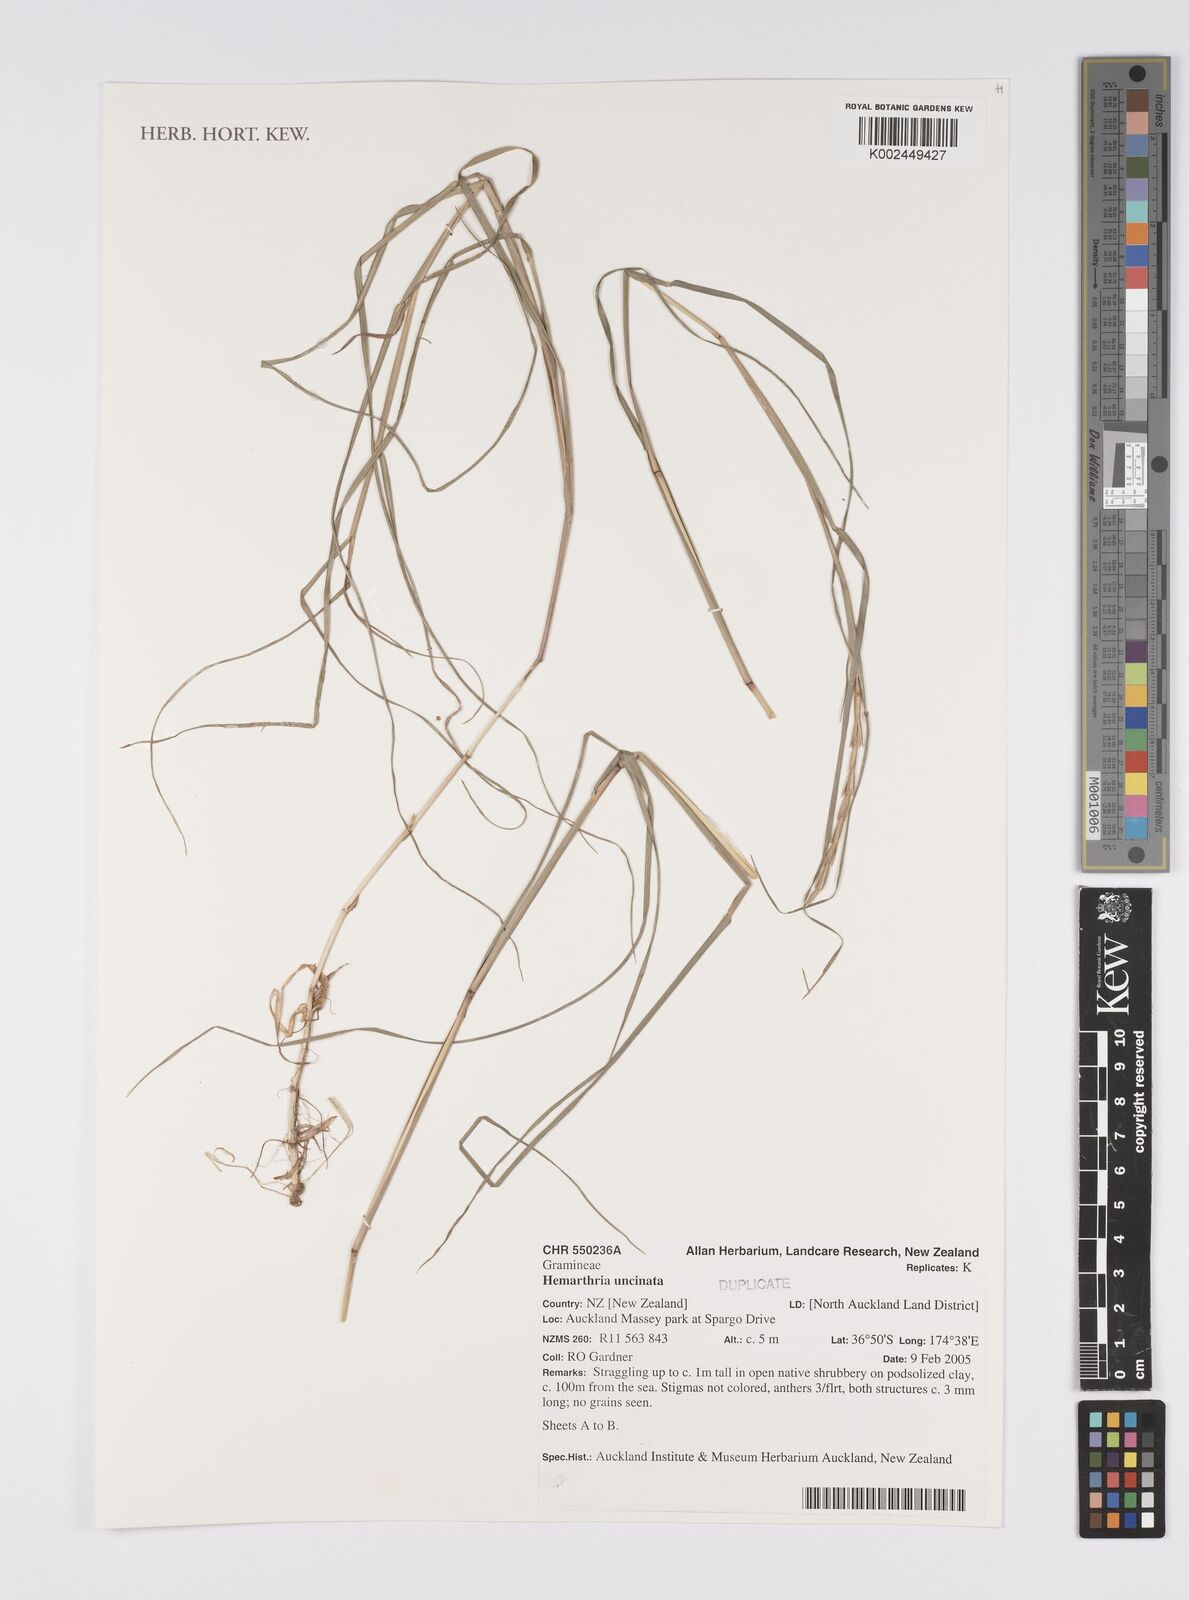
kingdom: Plantae
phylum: Tracheophyta
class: Liliopsida
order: Poales
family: Poaceae
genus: Hemarthria
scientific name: Hemarthria uncinata
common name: Matgrass
